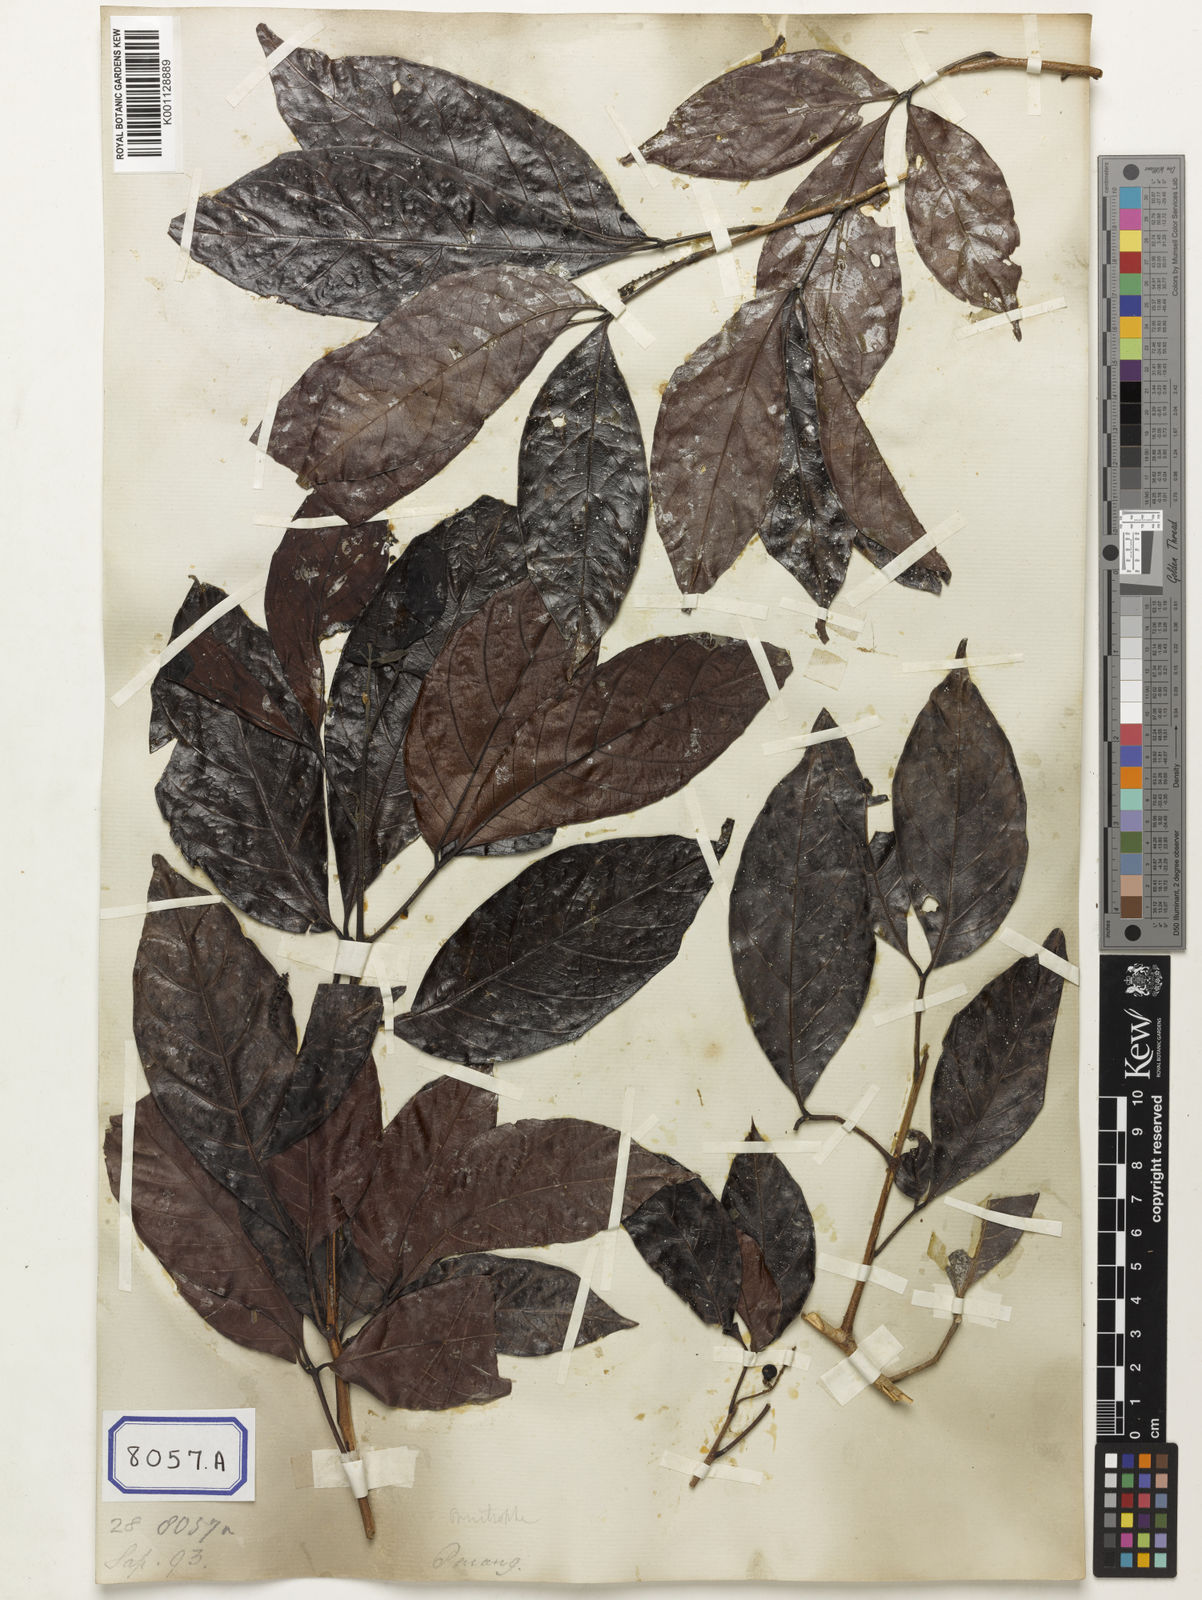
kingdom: Plantae
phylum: Tracheophyta
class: Magnoliopsida
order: Malpighiales
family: Calophyllaceae
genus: Calophyllum
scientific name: Calophyllum
